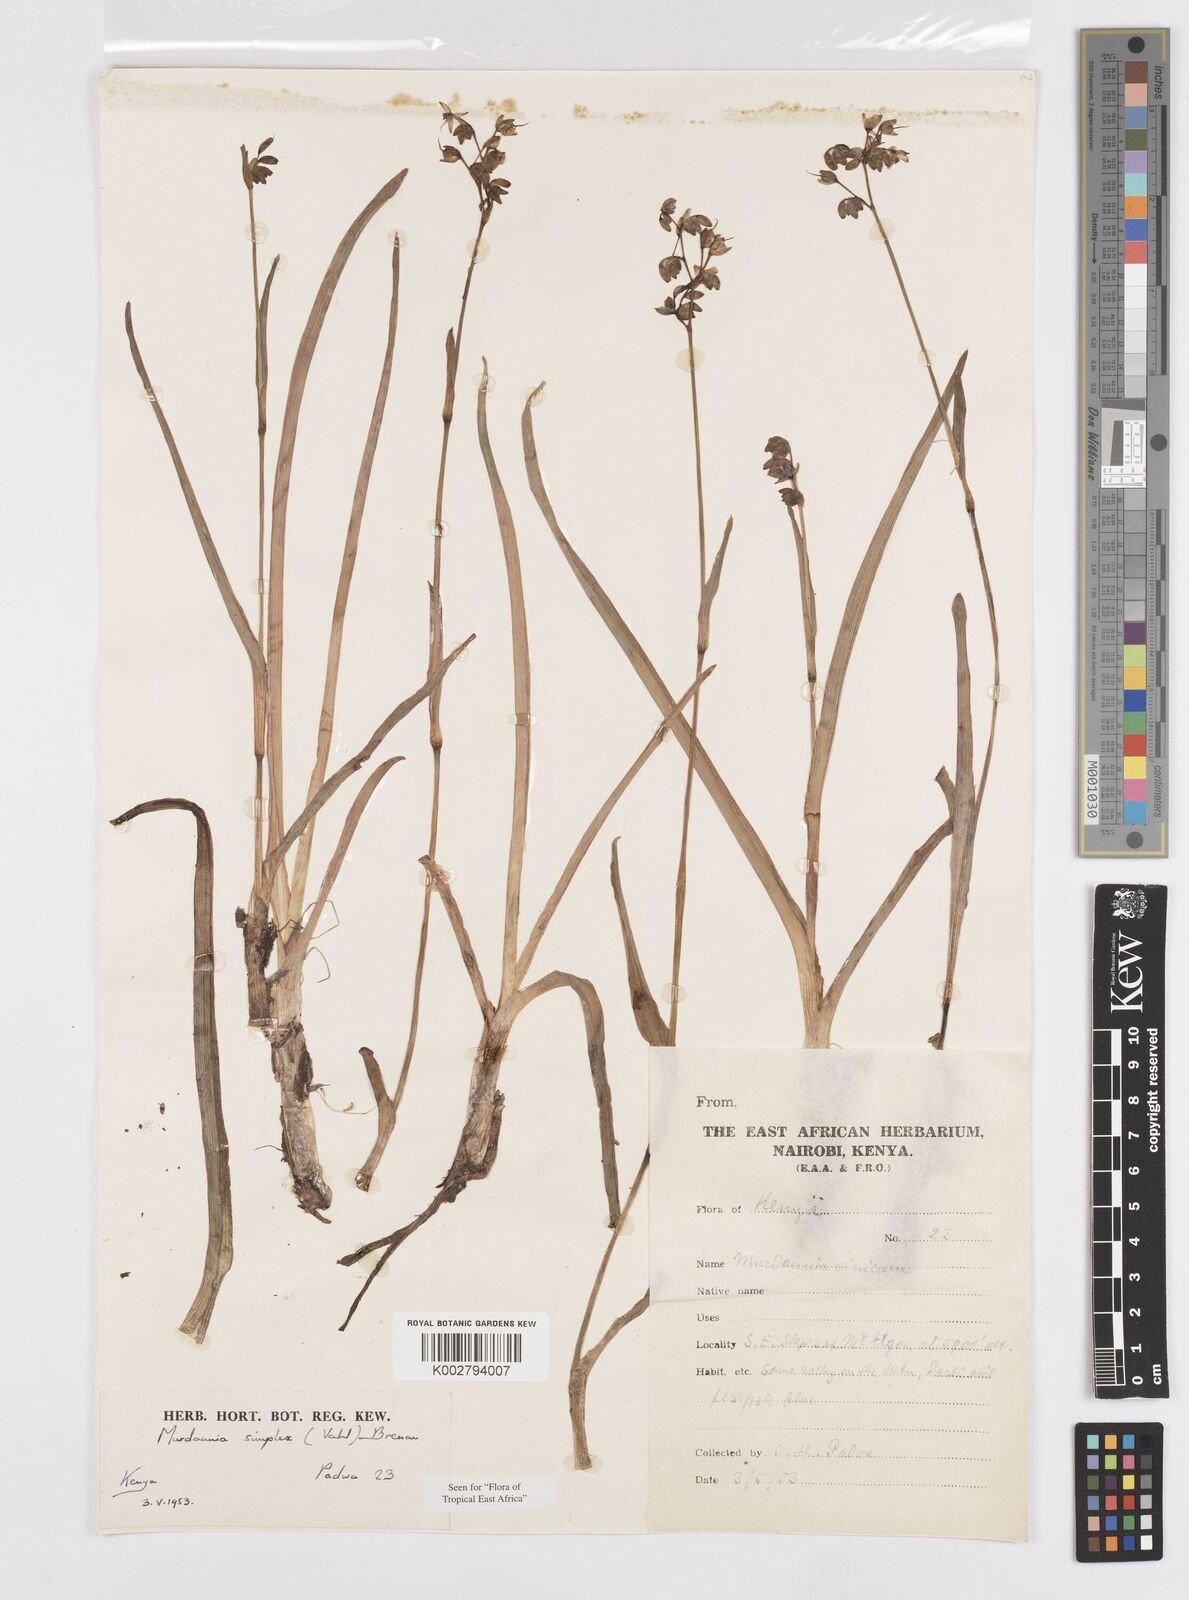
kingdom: Plantae
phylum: Tracheophyta
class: Liliopsida
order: Commelinales
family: Commelinaceae
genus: Murdannia
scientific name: Murdannia simplex
